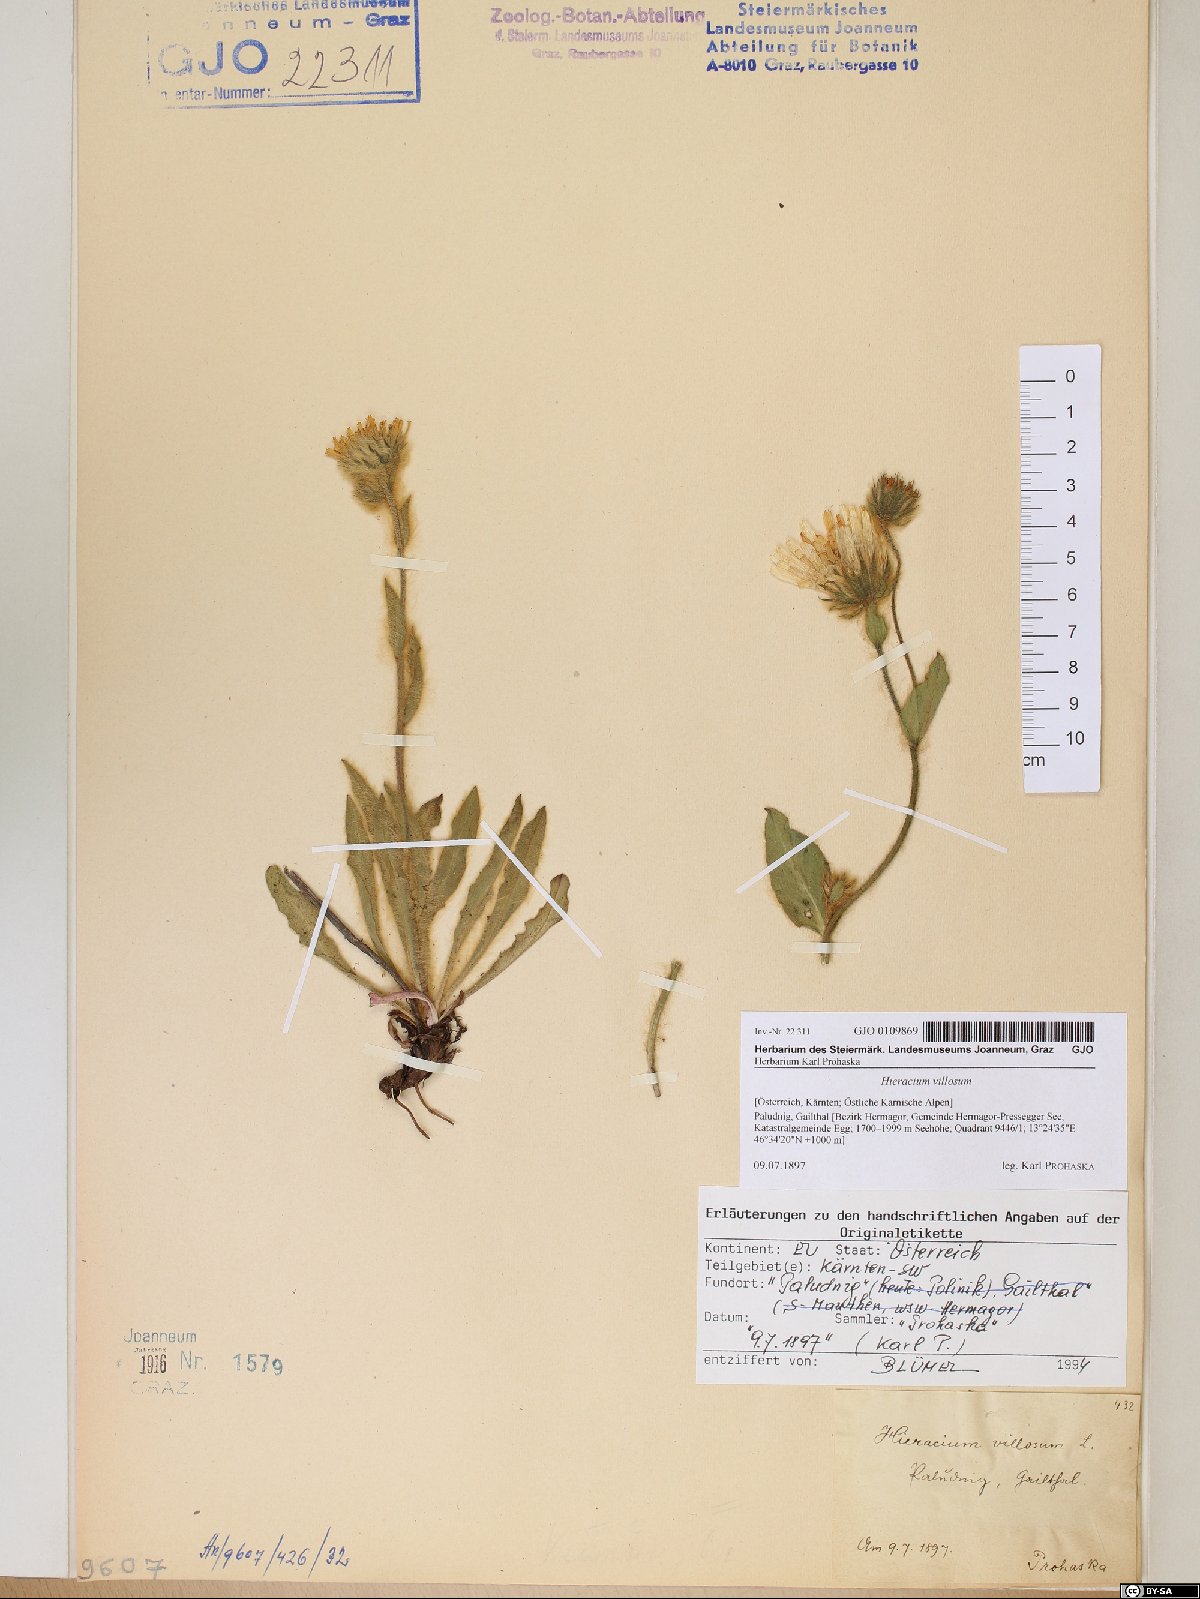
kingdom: Plantae
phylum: Tracheophyta
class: Magnoliopsida
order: Asterales
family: Asteraceae
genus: Hieracium
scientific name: Hieracium villosum
